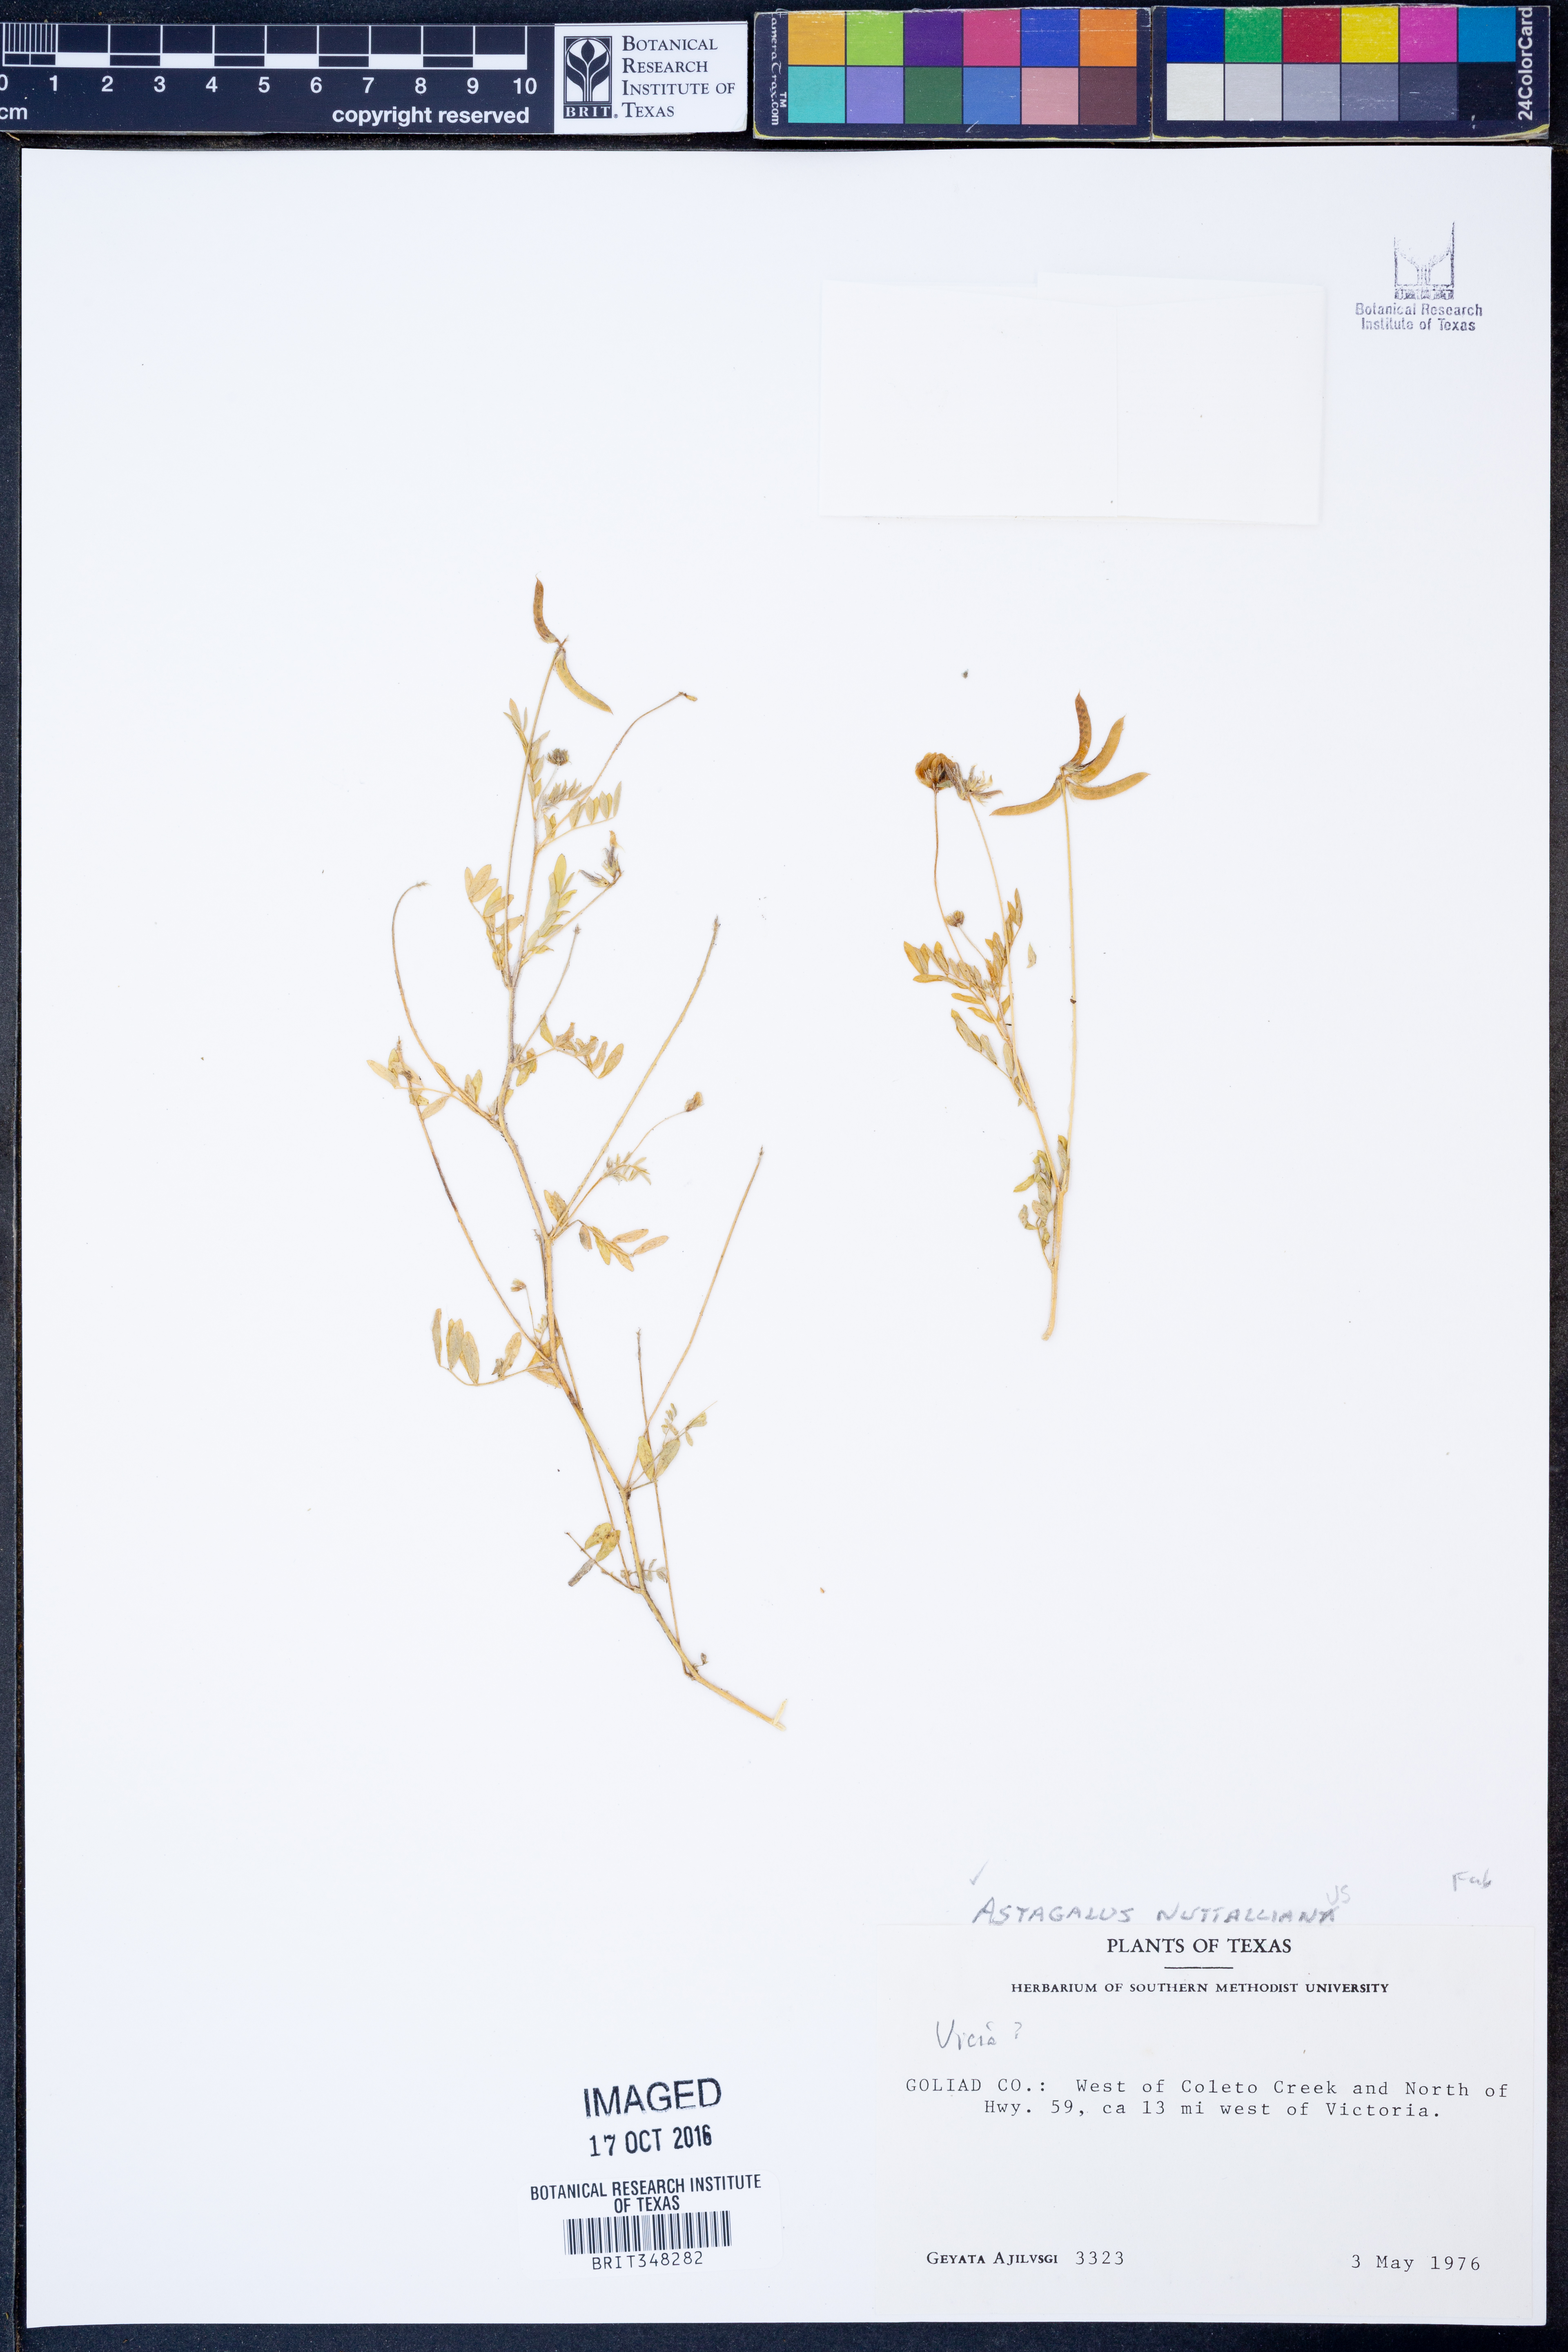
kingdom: Plantae
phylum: Tracheophyta
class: Magnoliopsida
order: Fabales
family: Fabaceae
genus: Astragalus
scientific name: Astragalus nuttallianus
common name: Smallflowered milkvetch
